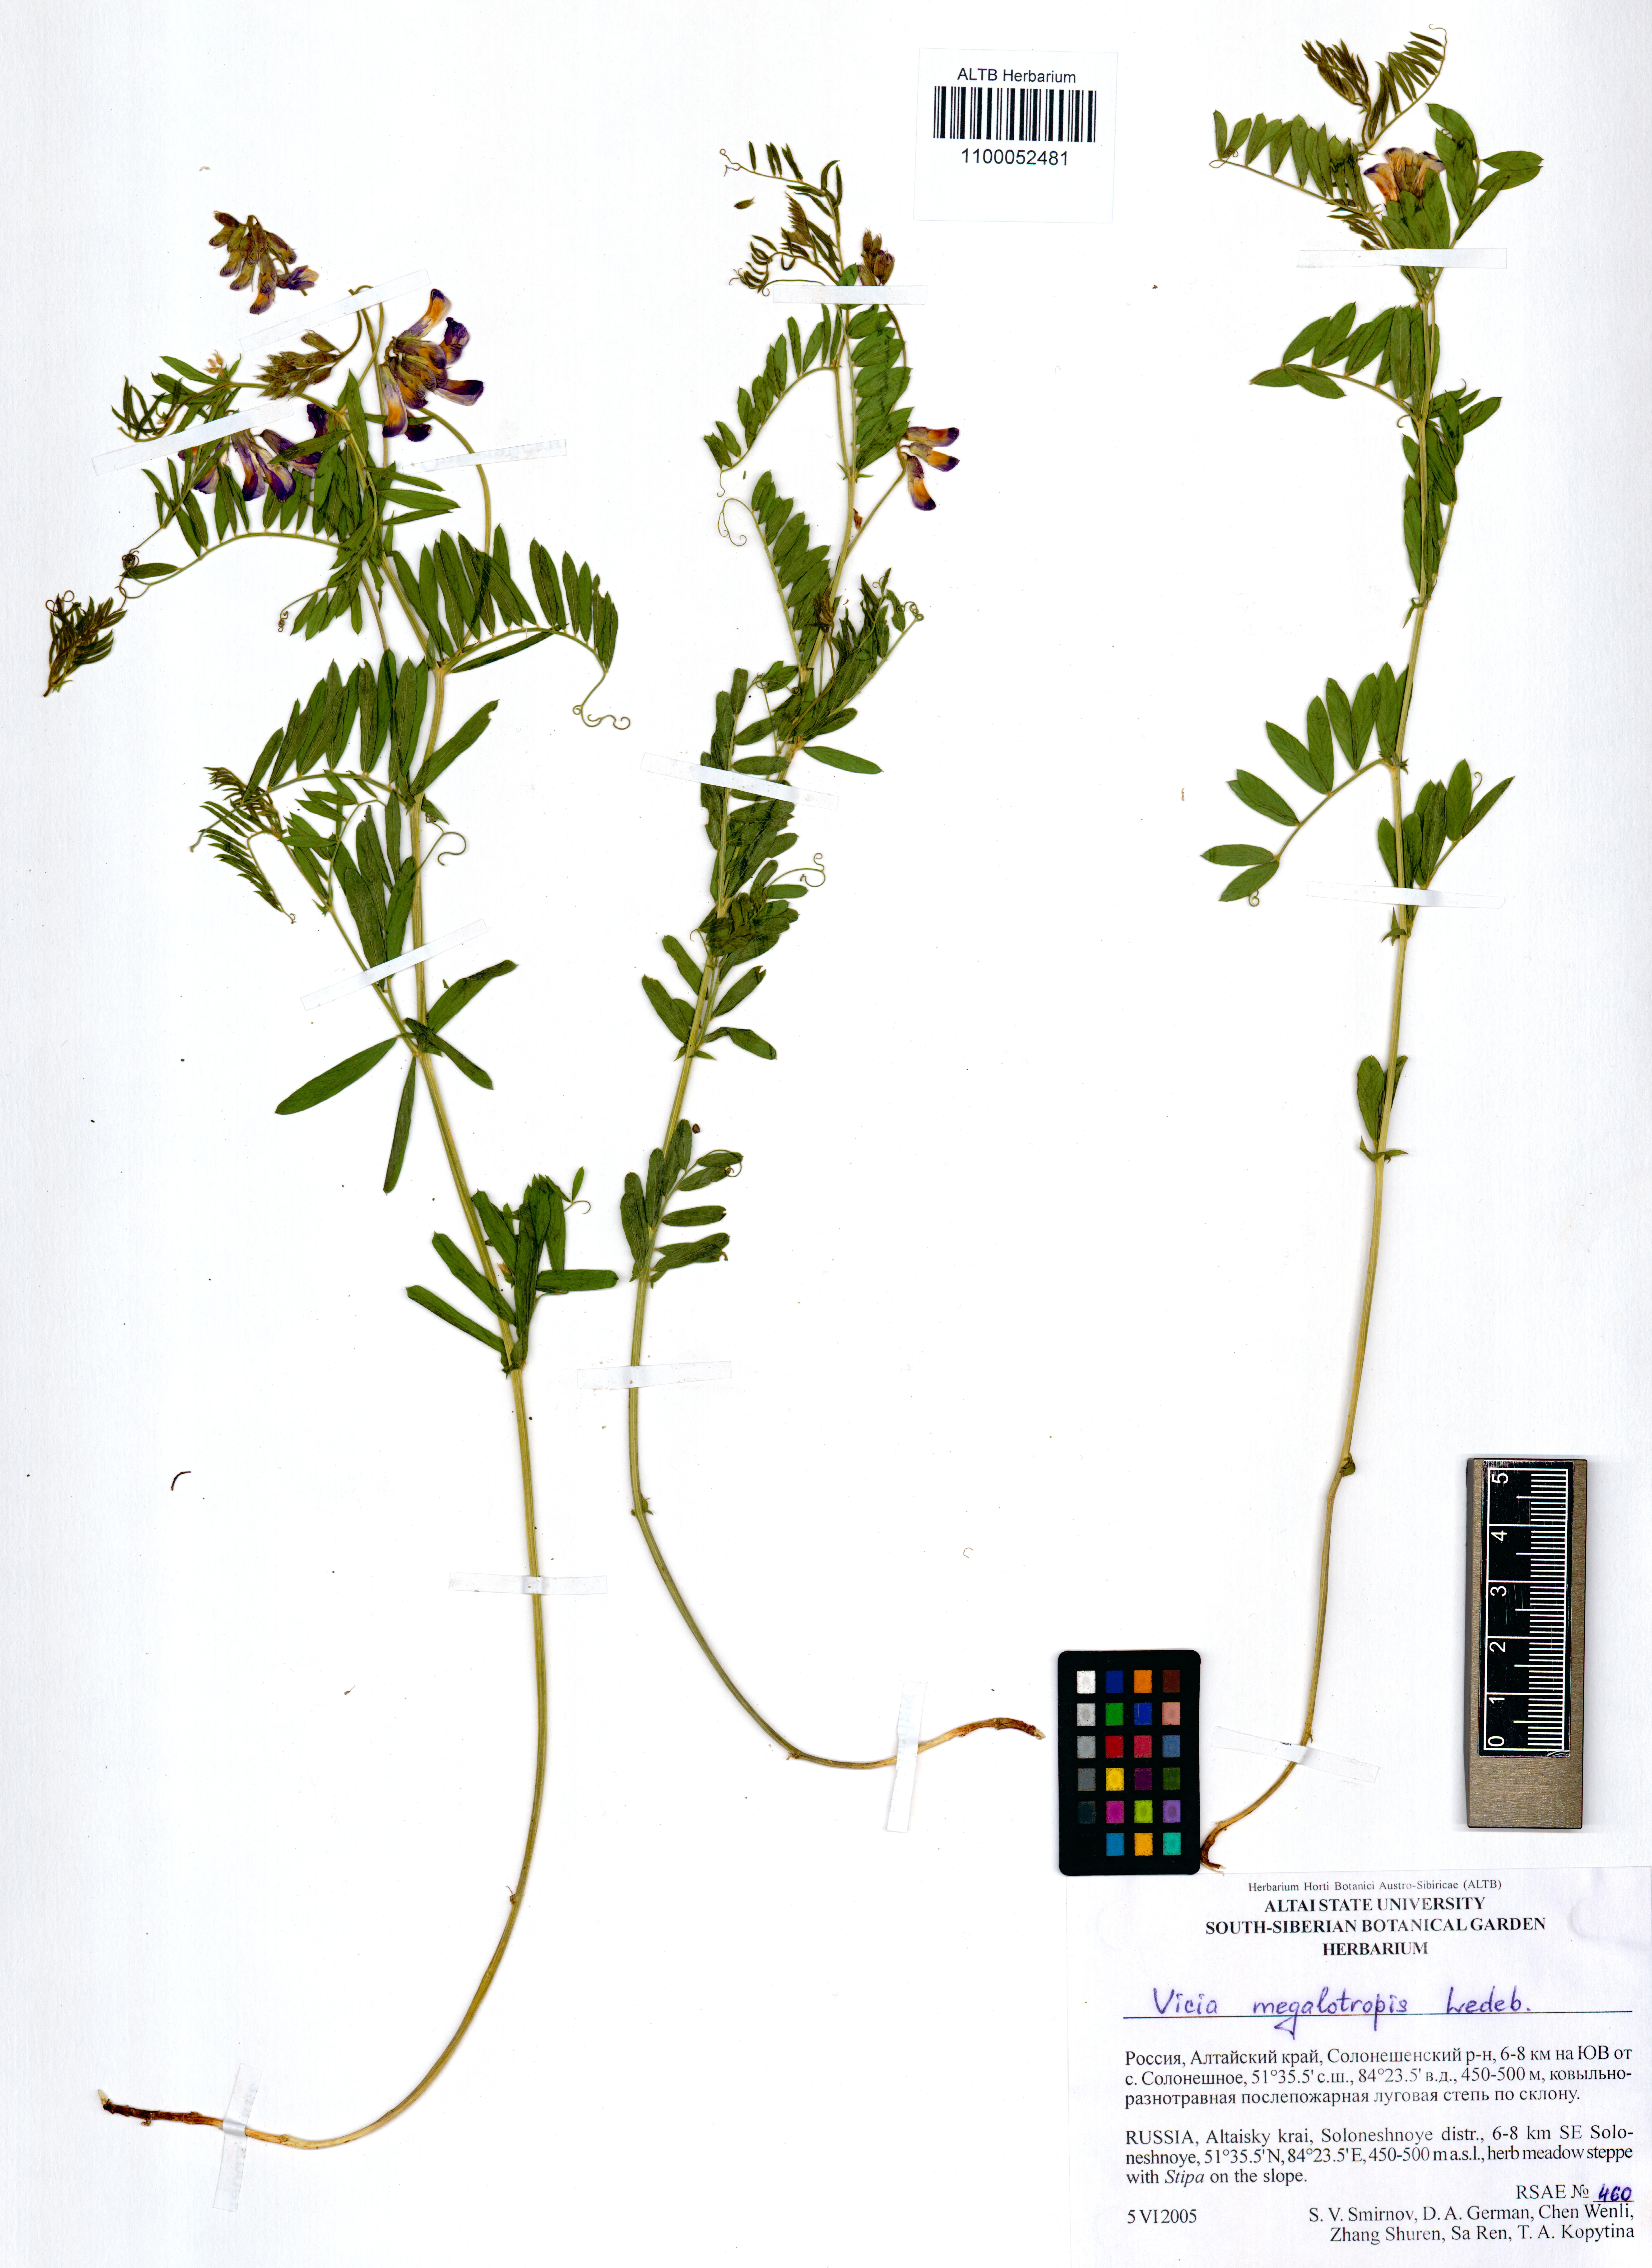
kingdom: Plantae
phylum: Tracheophyta
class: Magnoliopsida
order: Fabales
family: Fabaceae
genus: Vicia
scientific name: Vicia megalotropis
